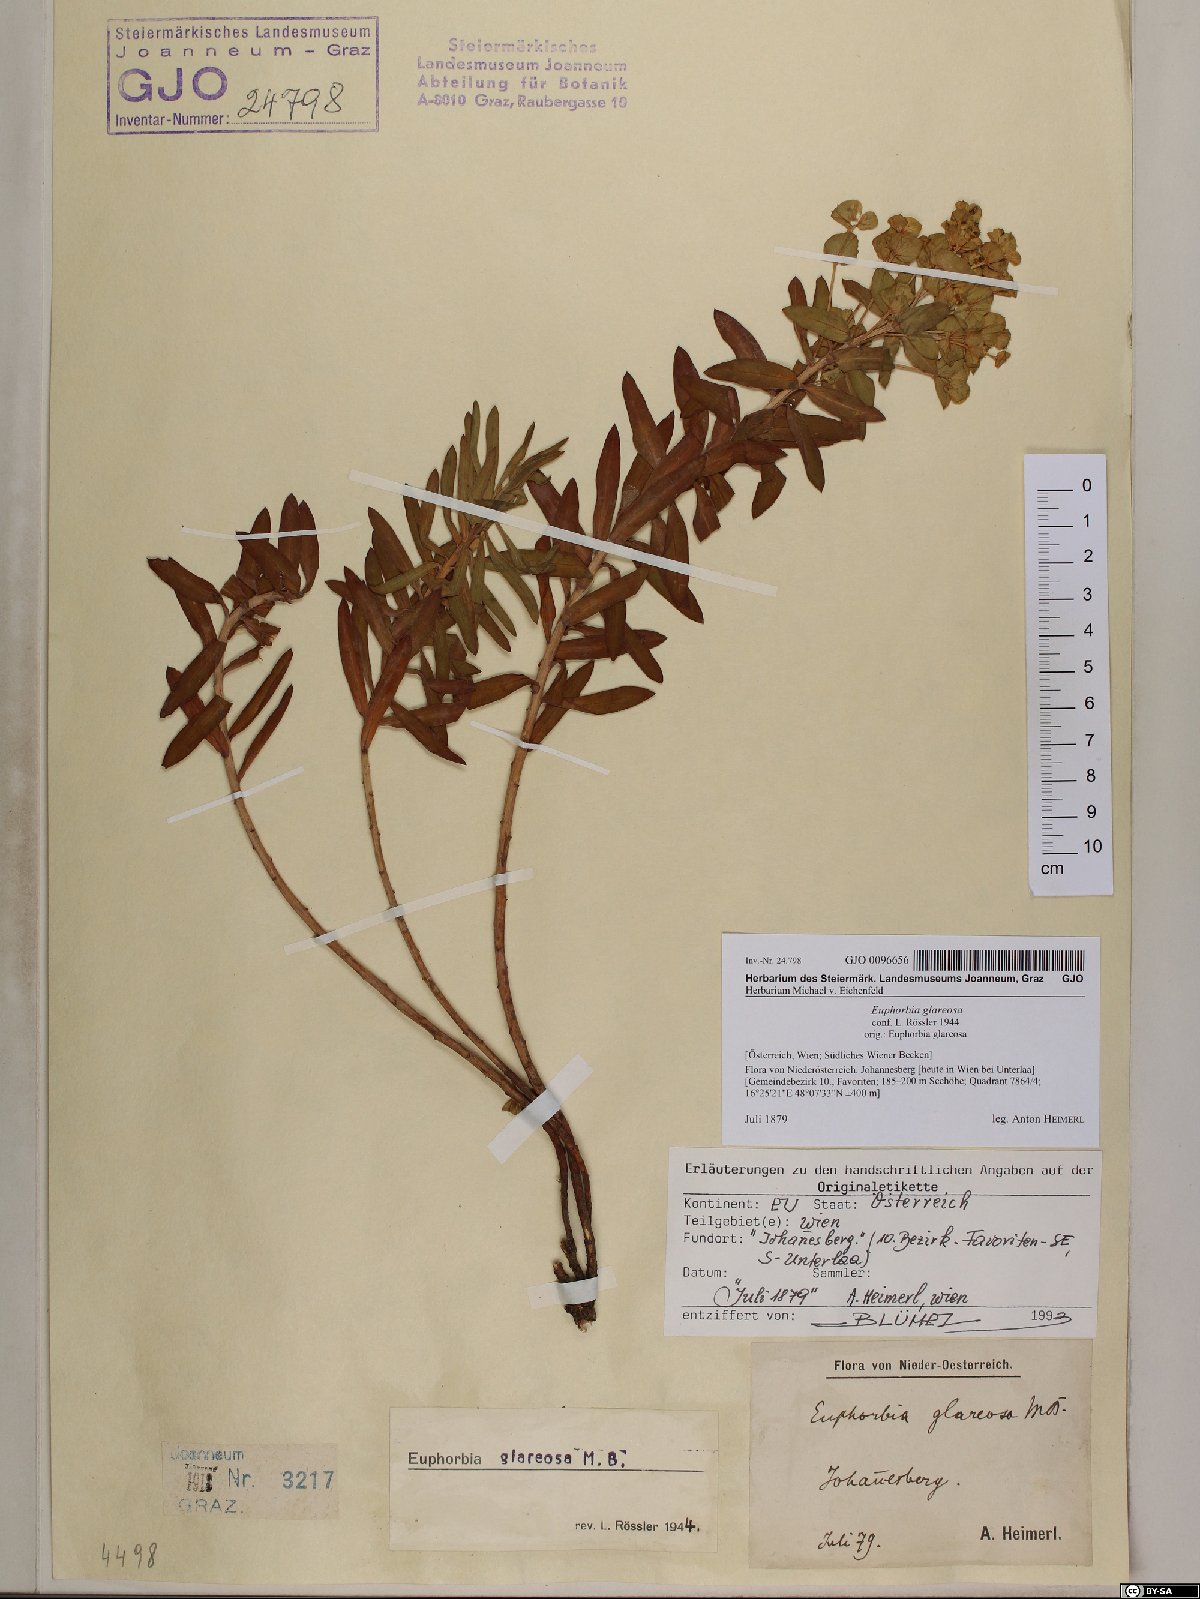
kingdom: Plantae
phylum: Tracheophyta
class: Magnoliopsida
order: Malpighiales
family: Euphorbiaceae
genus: Euphorbia
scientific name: Euphorbia glareosa
